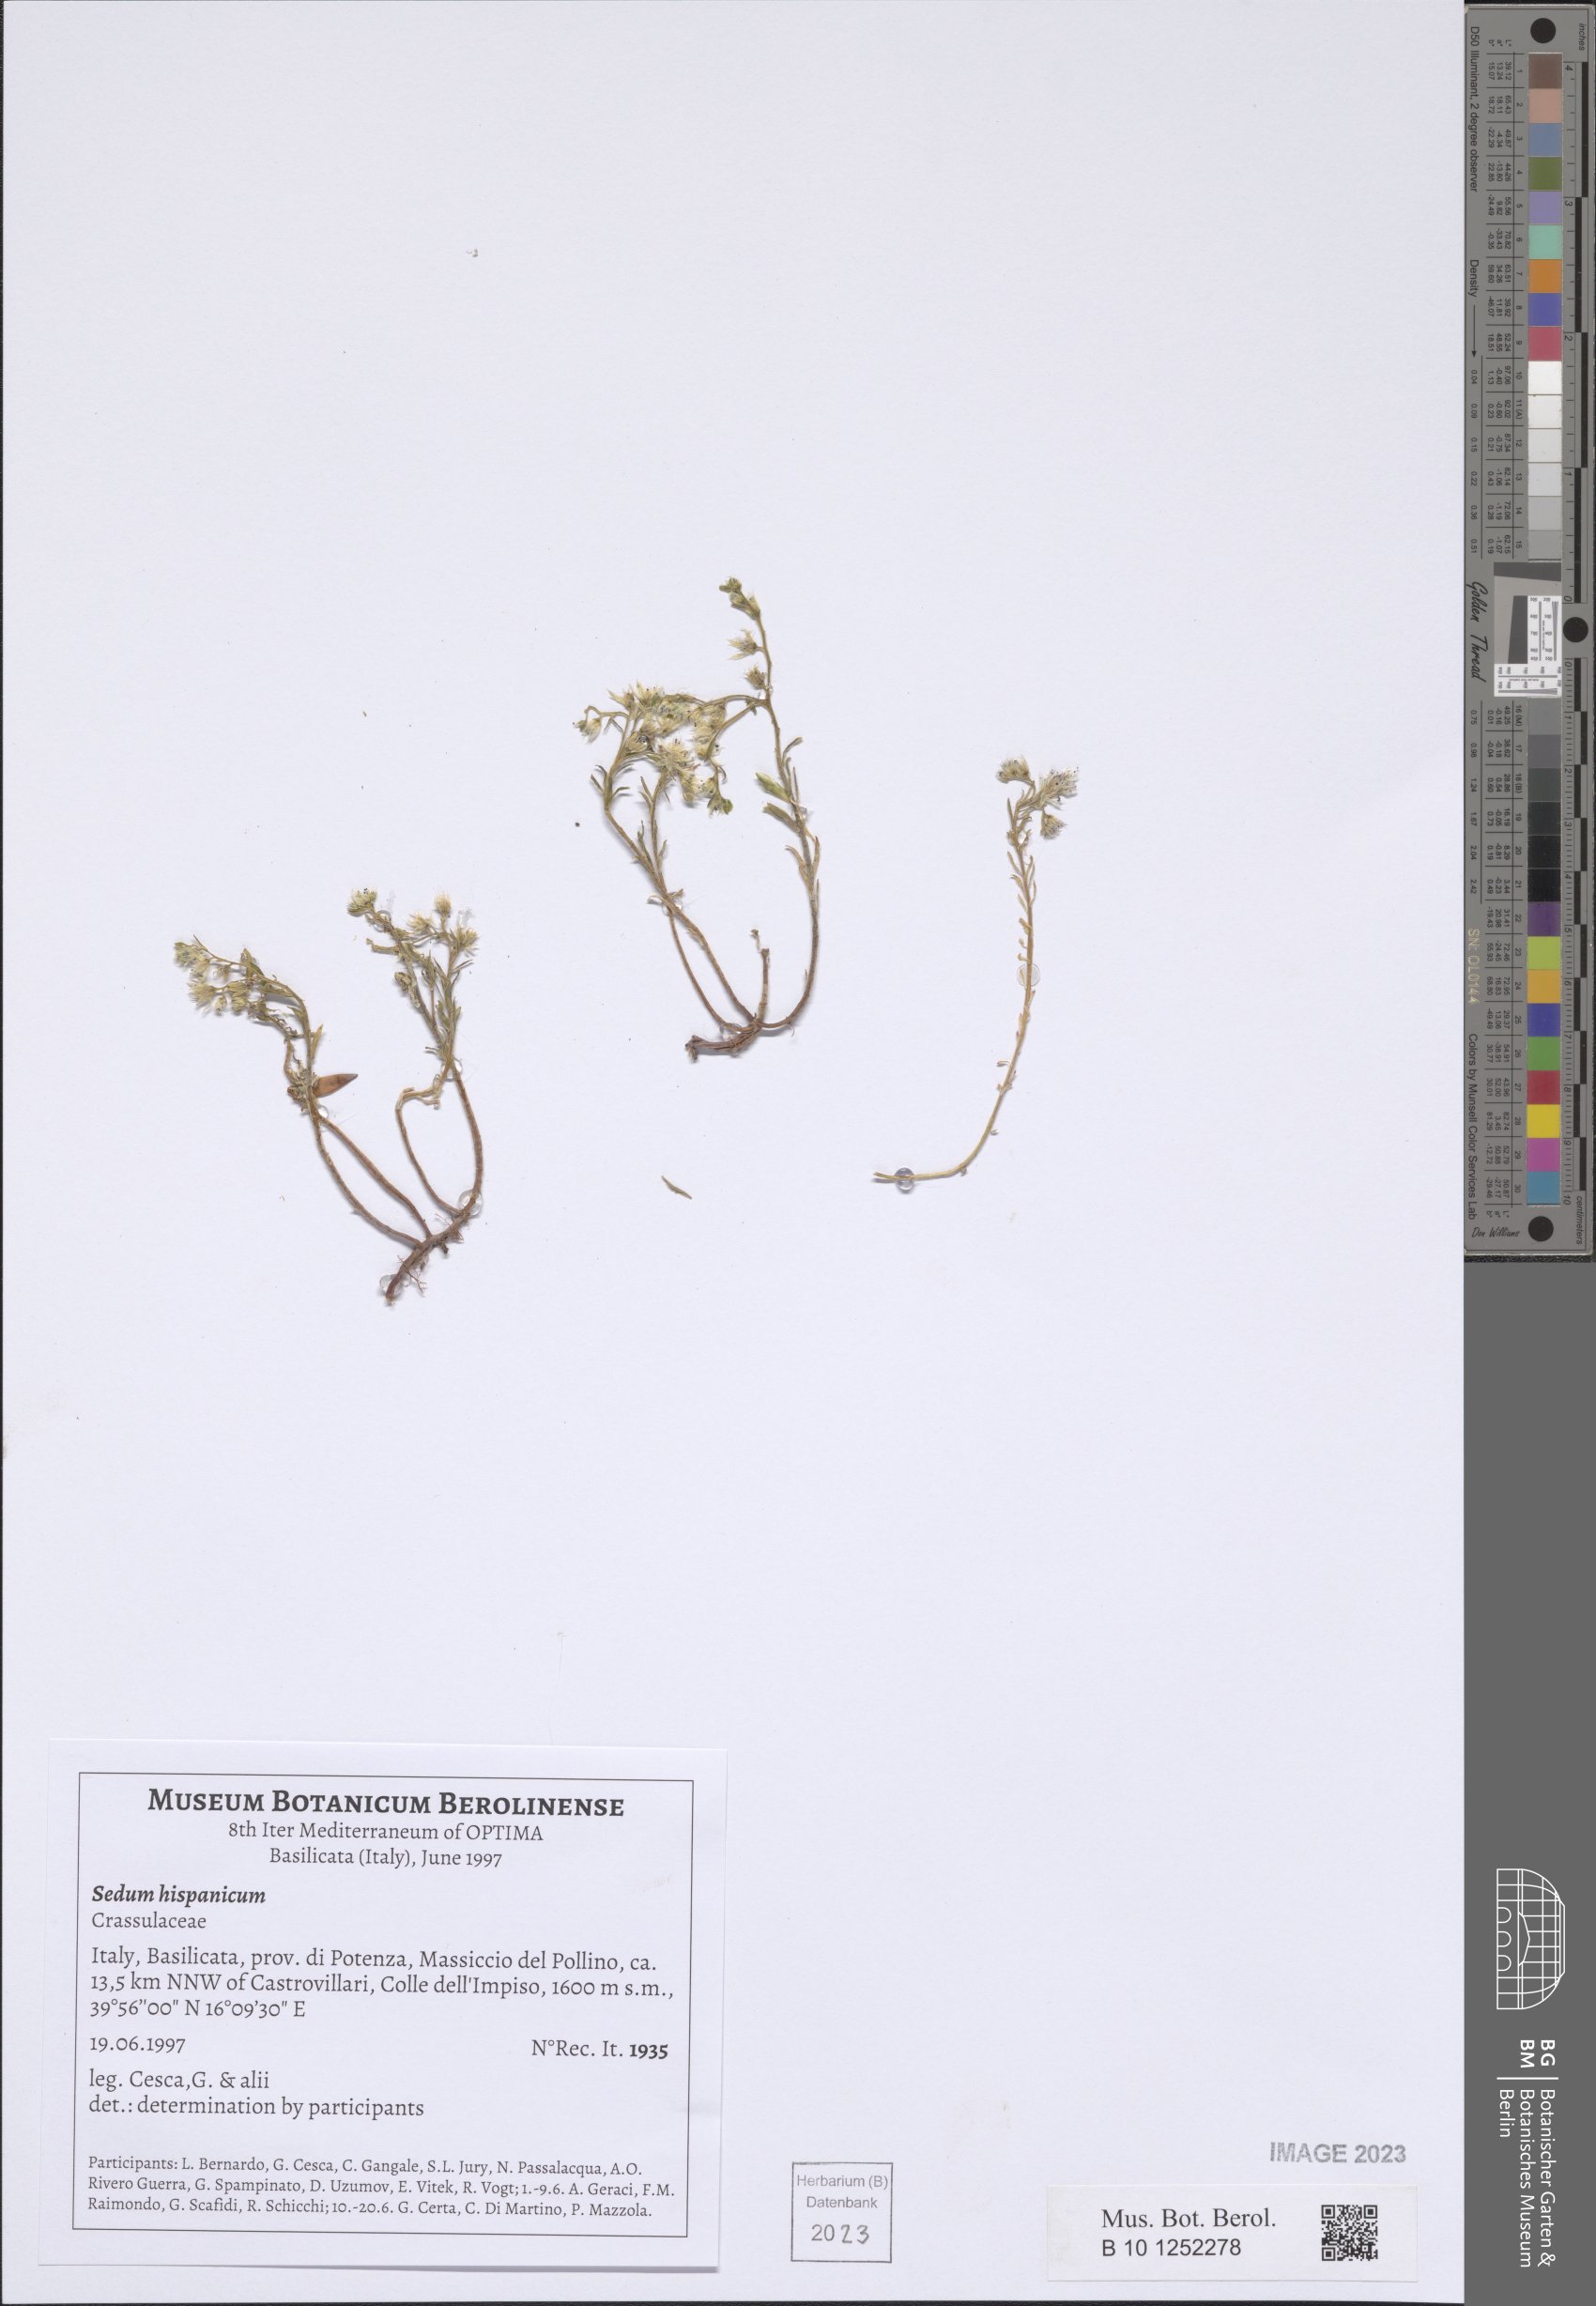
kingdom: Plantae
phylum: Tracheophyta
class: Magnoliopsida
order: Saxifragales
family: Crassulaceae
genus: Sedum
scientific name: Sedum hispanicum
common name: Spanish stonecrop
